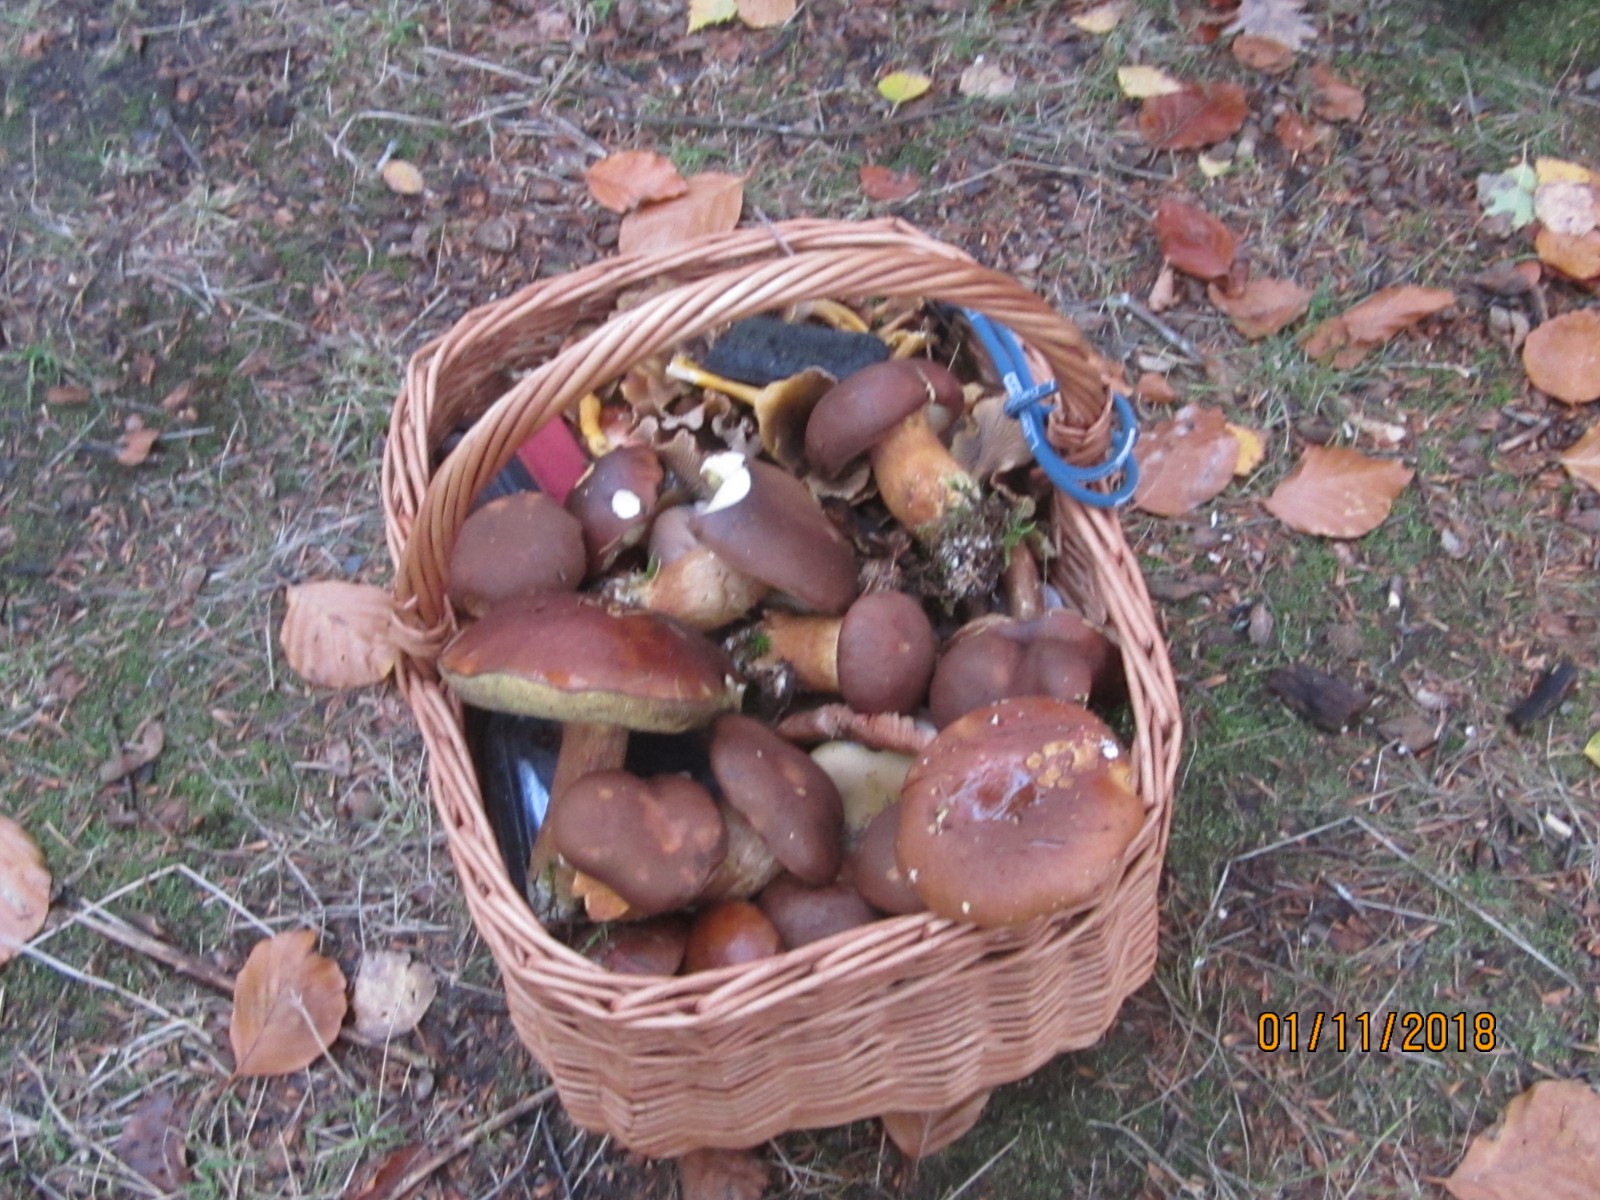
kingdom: Fungi
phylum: Basidiomycota
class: Agaricomycetes
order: Boletales
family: Boletaceae
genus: Imleria
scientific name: Imleria badia
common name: brunstokket rørhat
